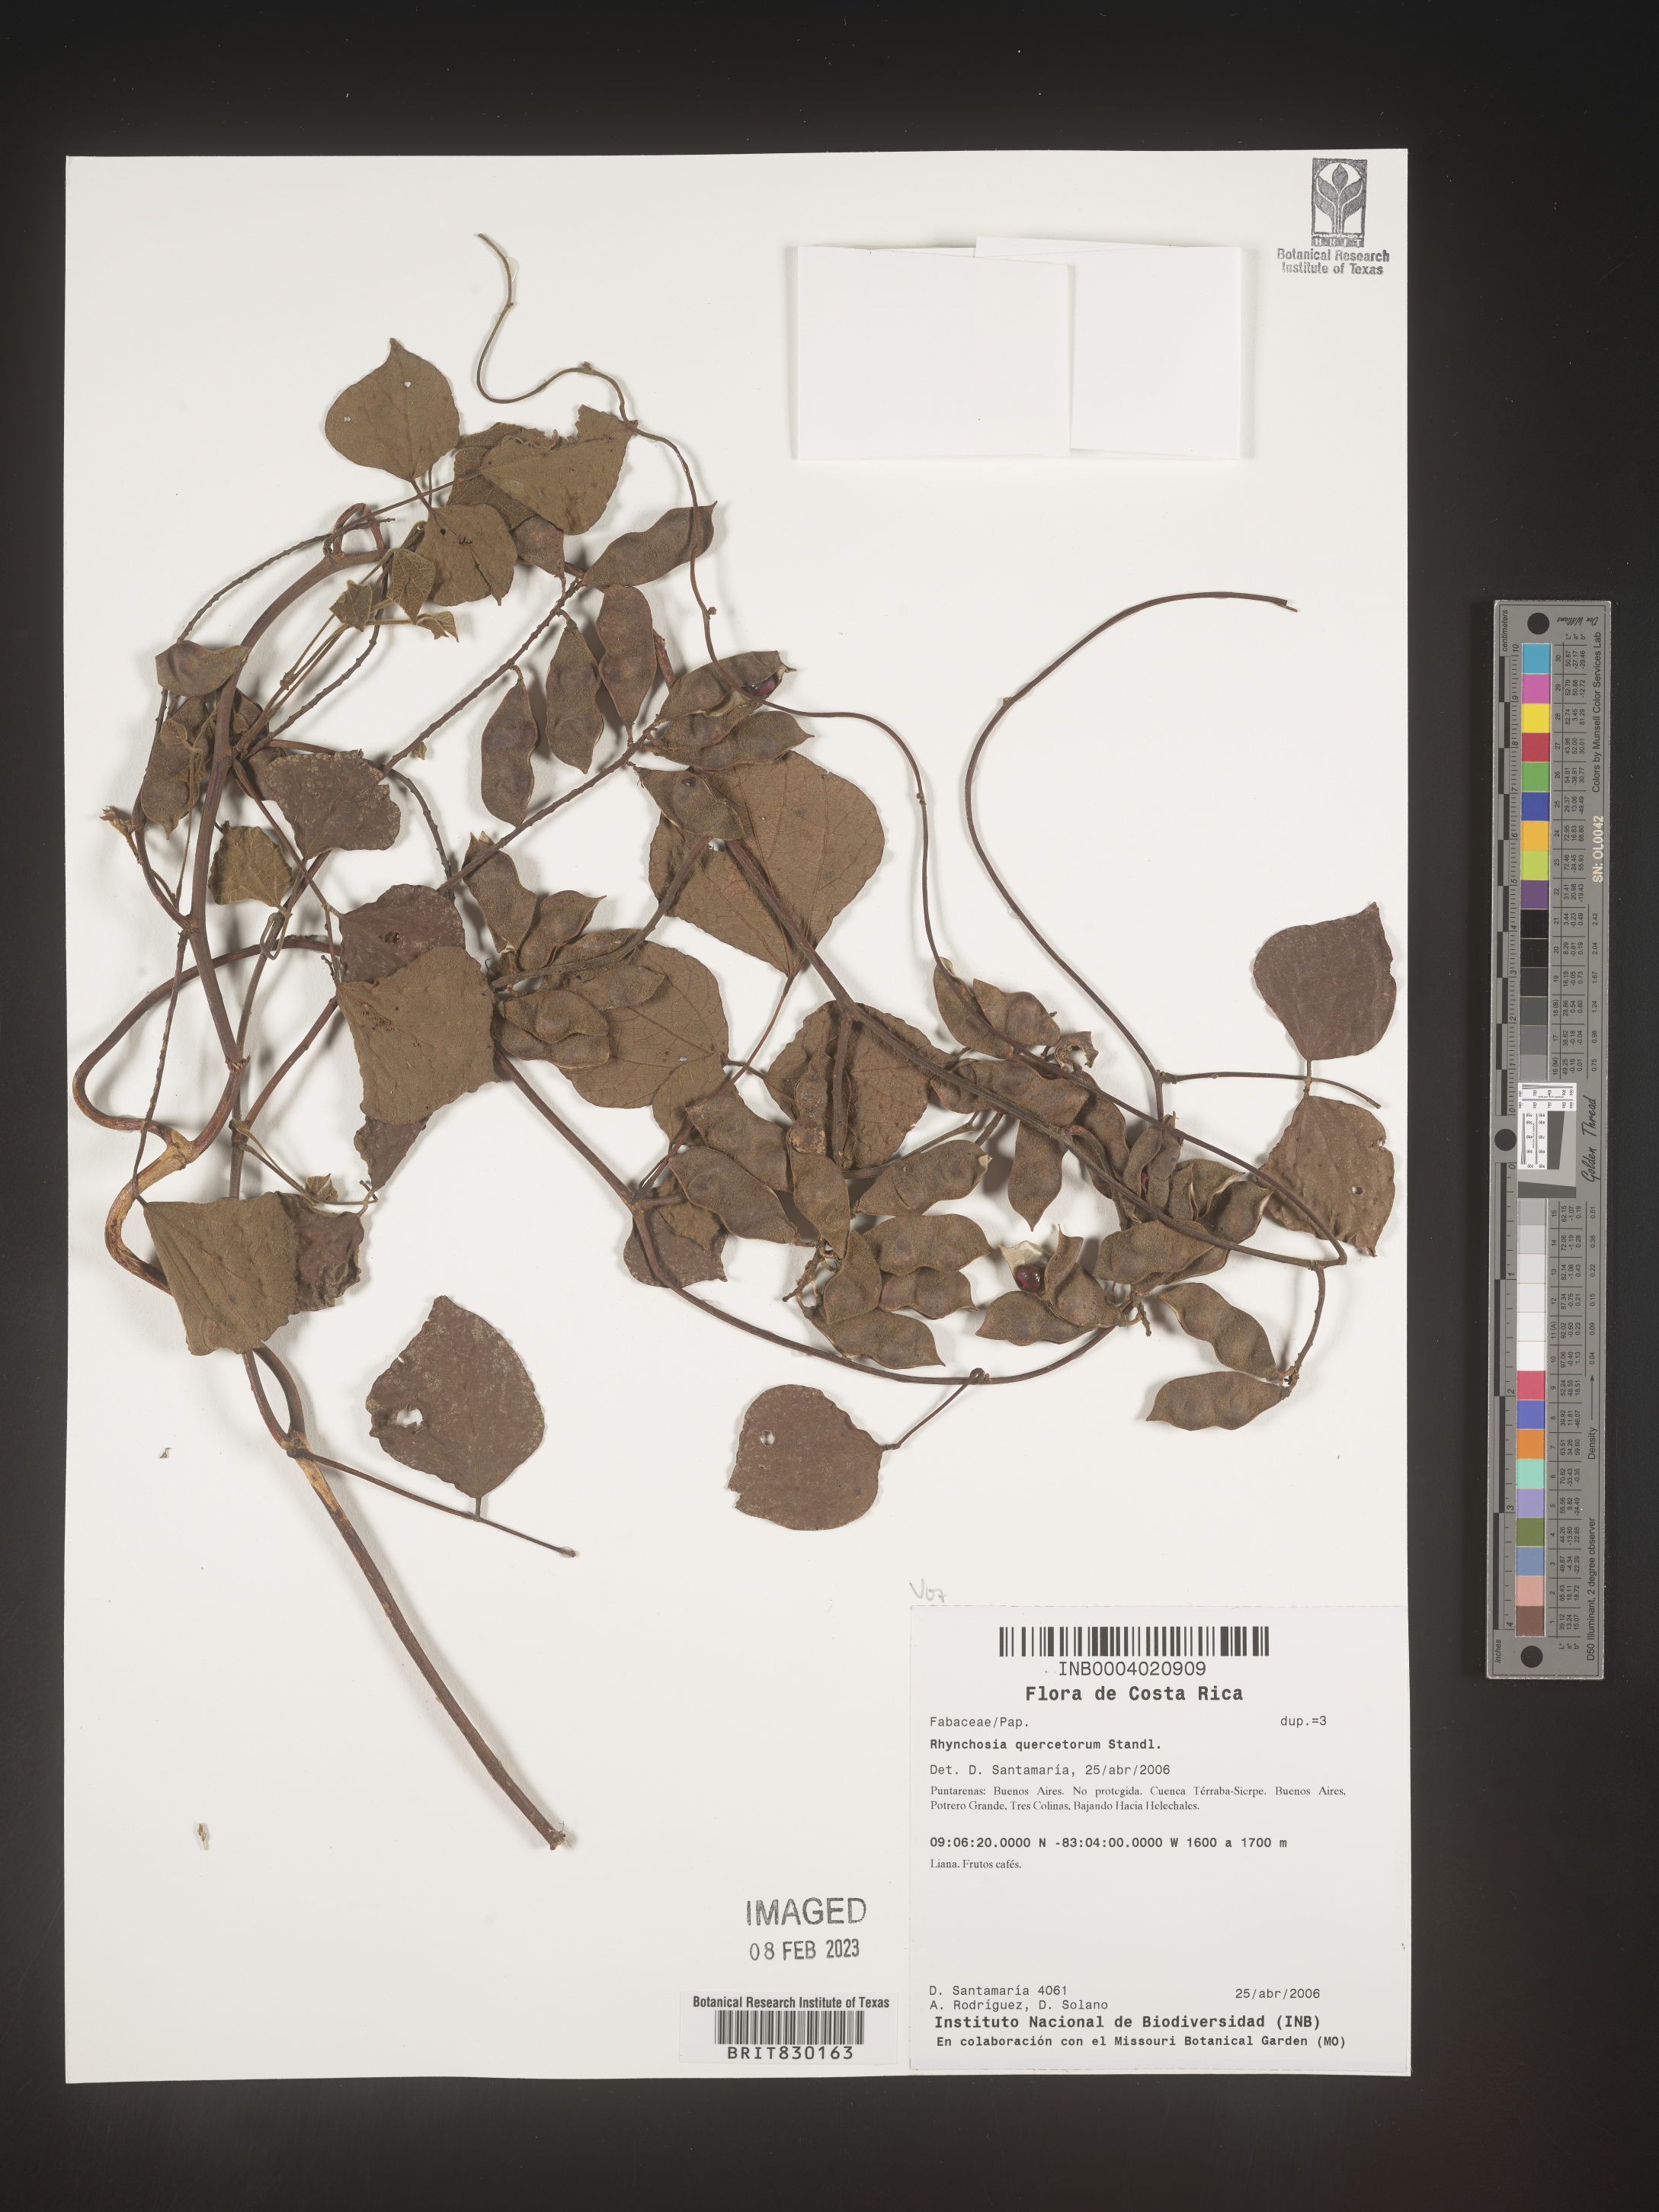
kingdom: Plantae
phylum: Tracheophyta
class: Magnoliopsida
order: Fabales
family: Fabaceae
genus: Rhynchosia
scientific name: Rhynchosia
